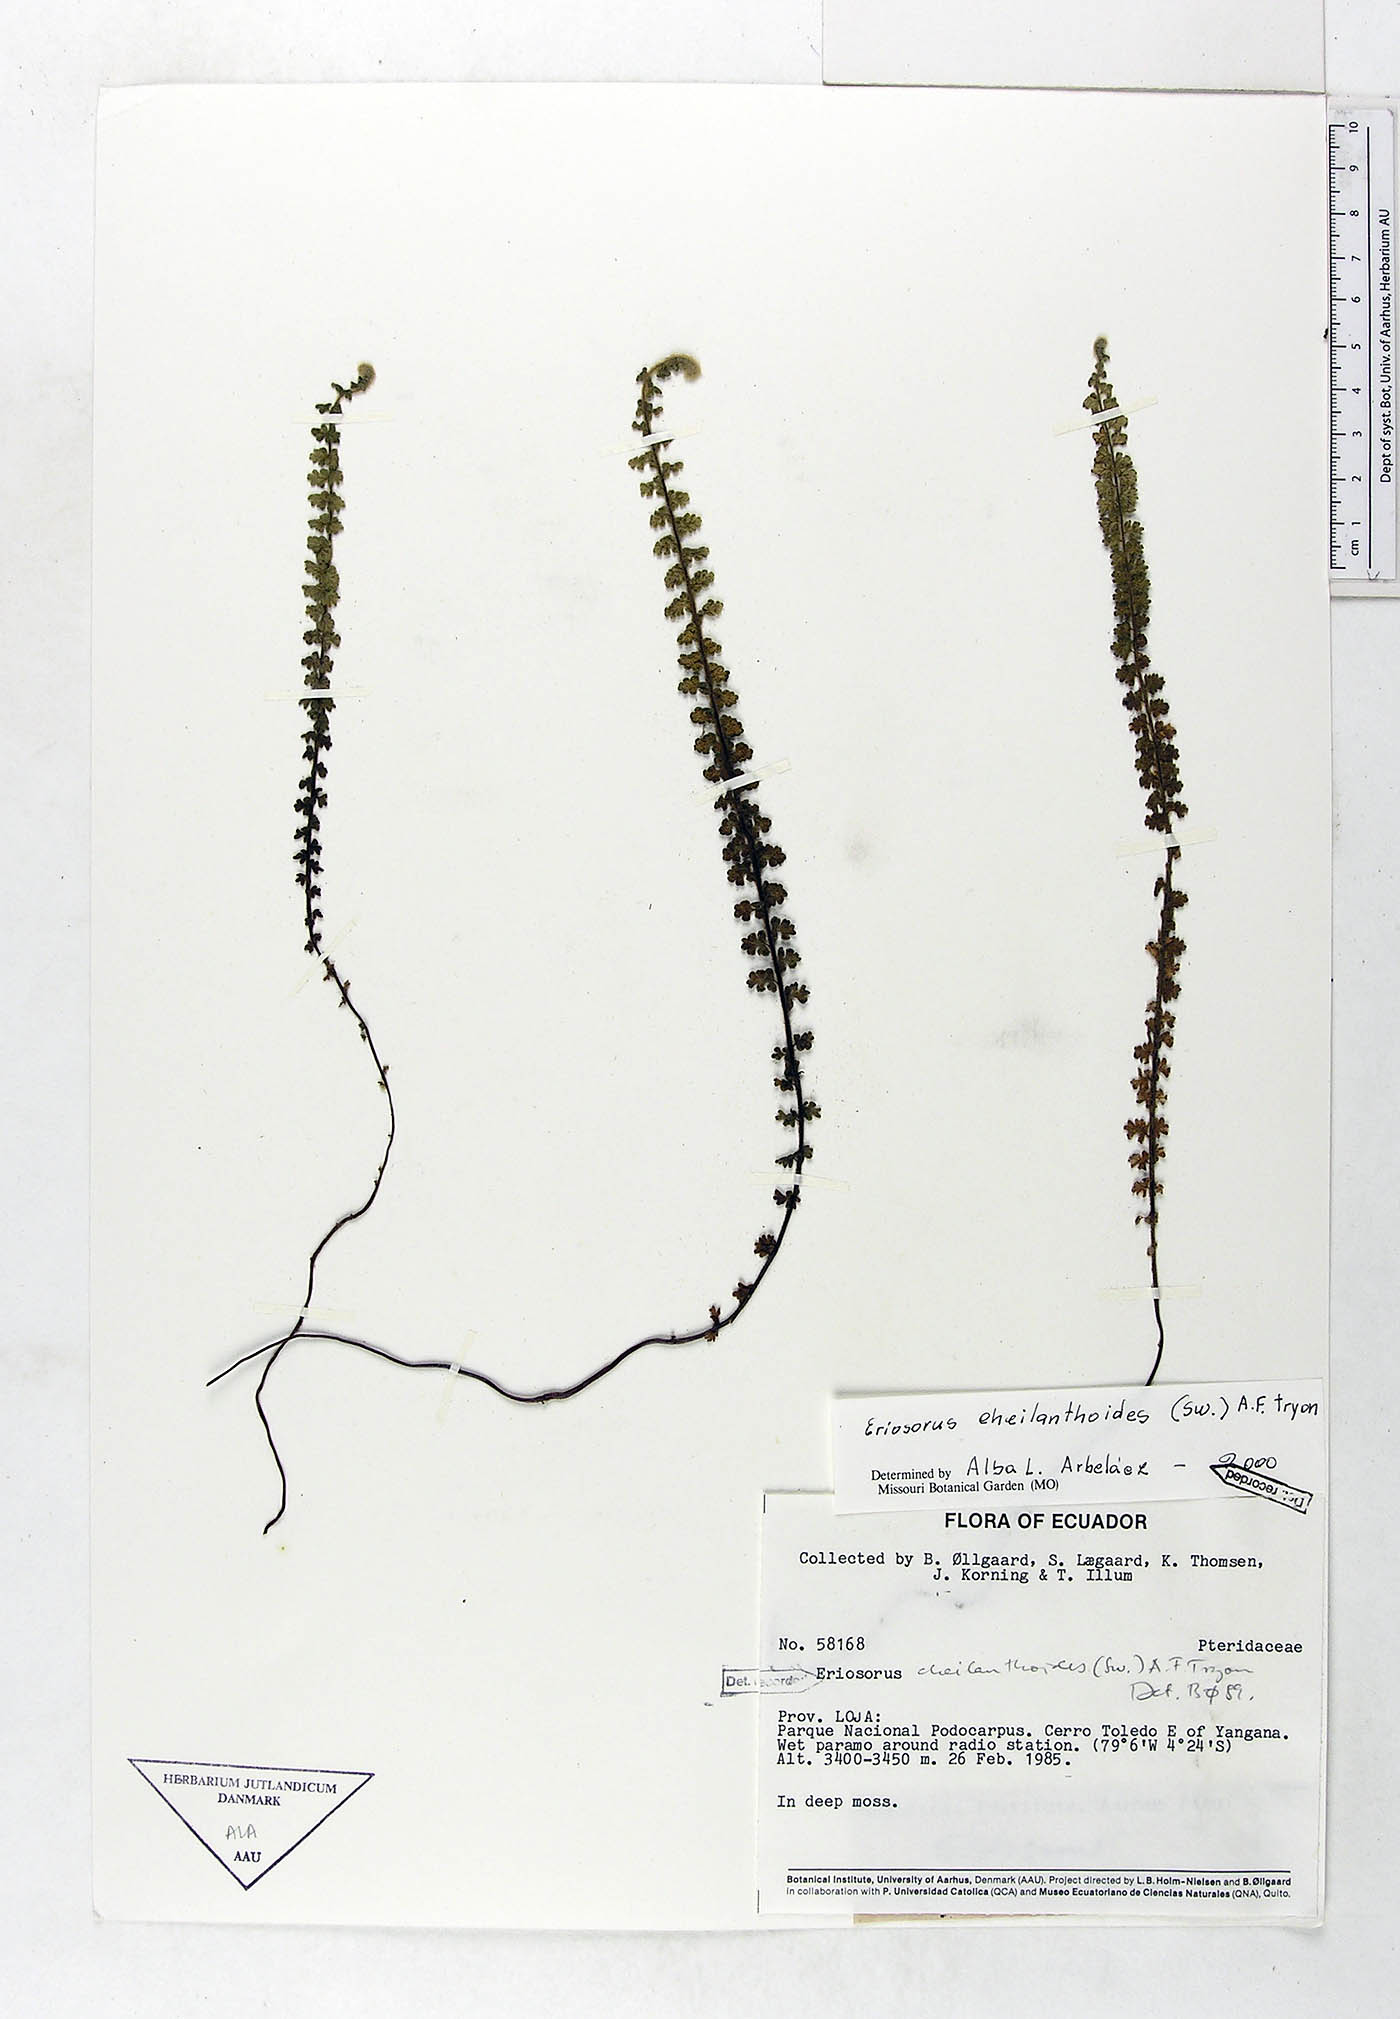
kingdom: Plantae
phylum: Tracheophyta
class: Polypodiopsida
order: Polypodiales
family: Pteridaceae
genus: Jamesonia
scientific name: Jamesonia cheilanthoides
